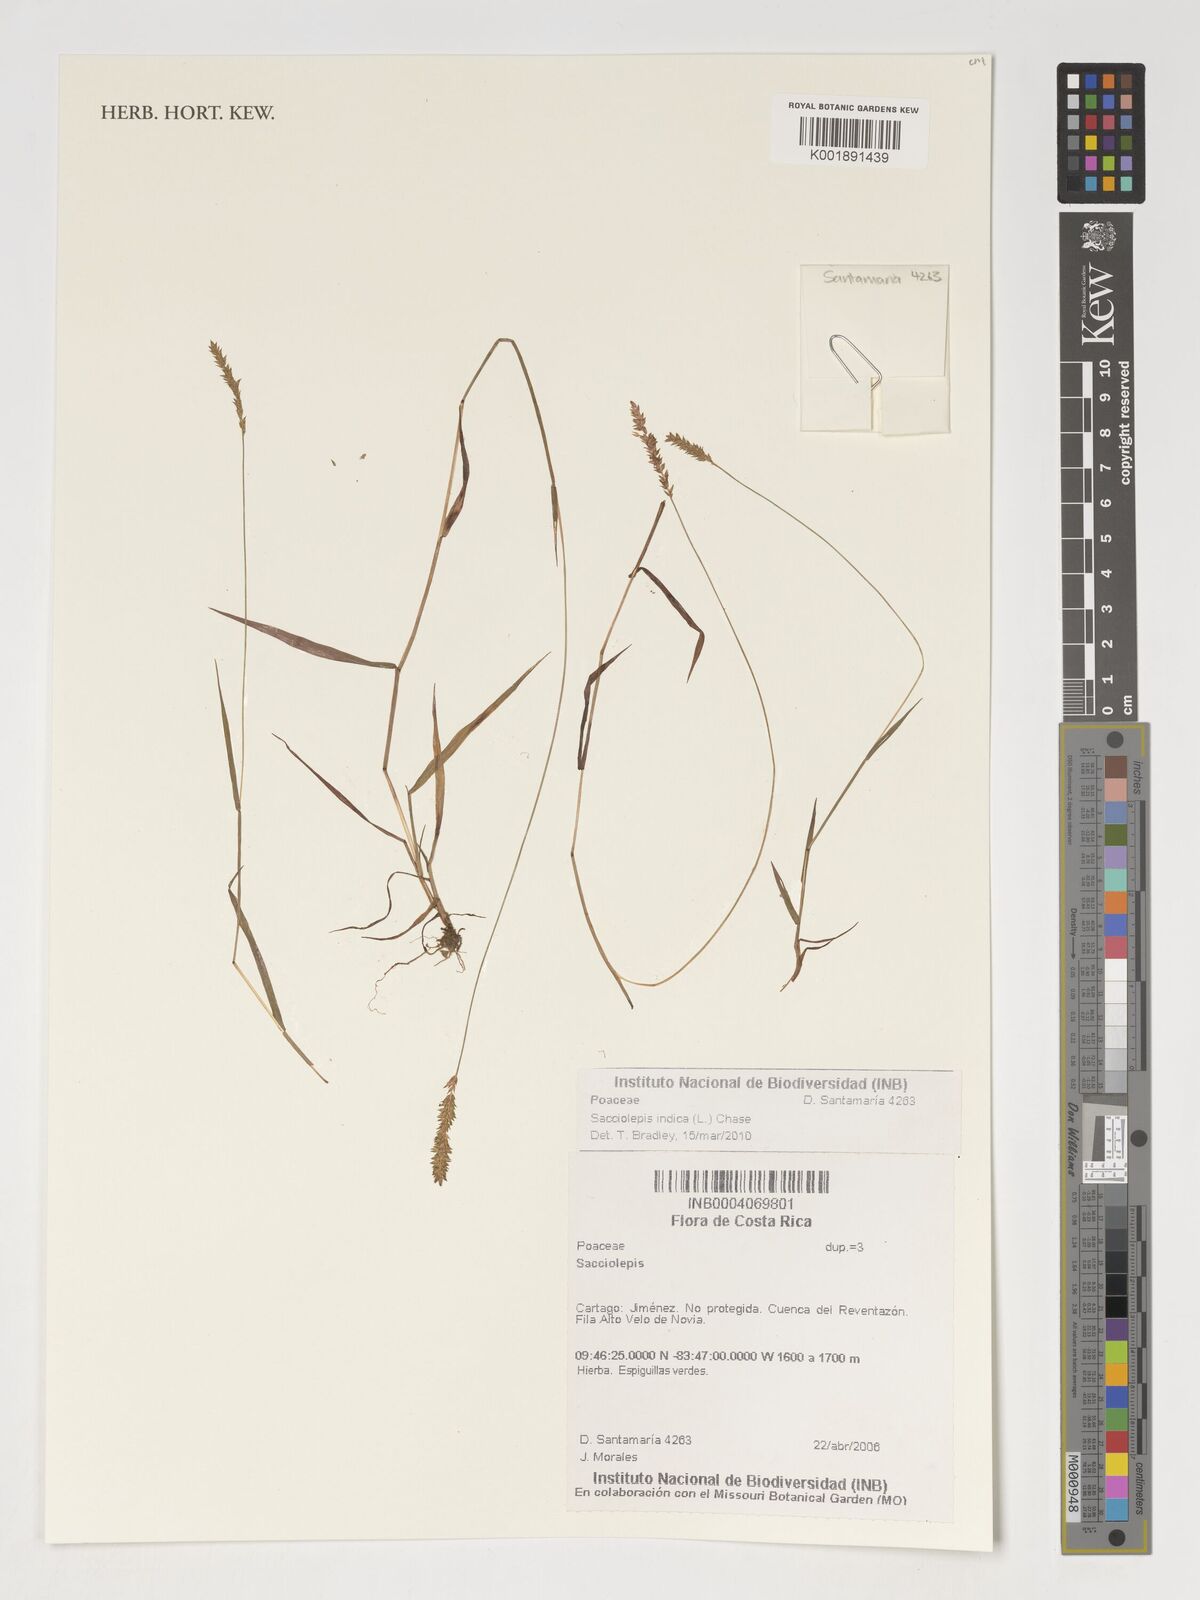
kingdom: Plantae
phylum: Tracheophyta
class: Liliopsida
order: Poales
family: Poaceae
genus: Sacciolepis
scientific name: Sacciolepis indica
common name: Glenwoodgrass
